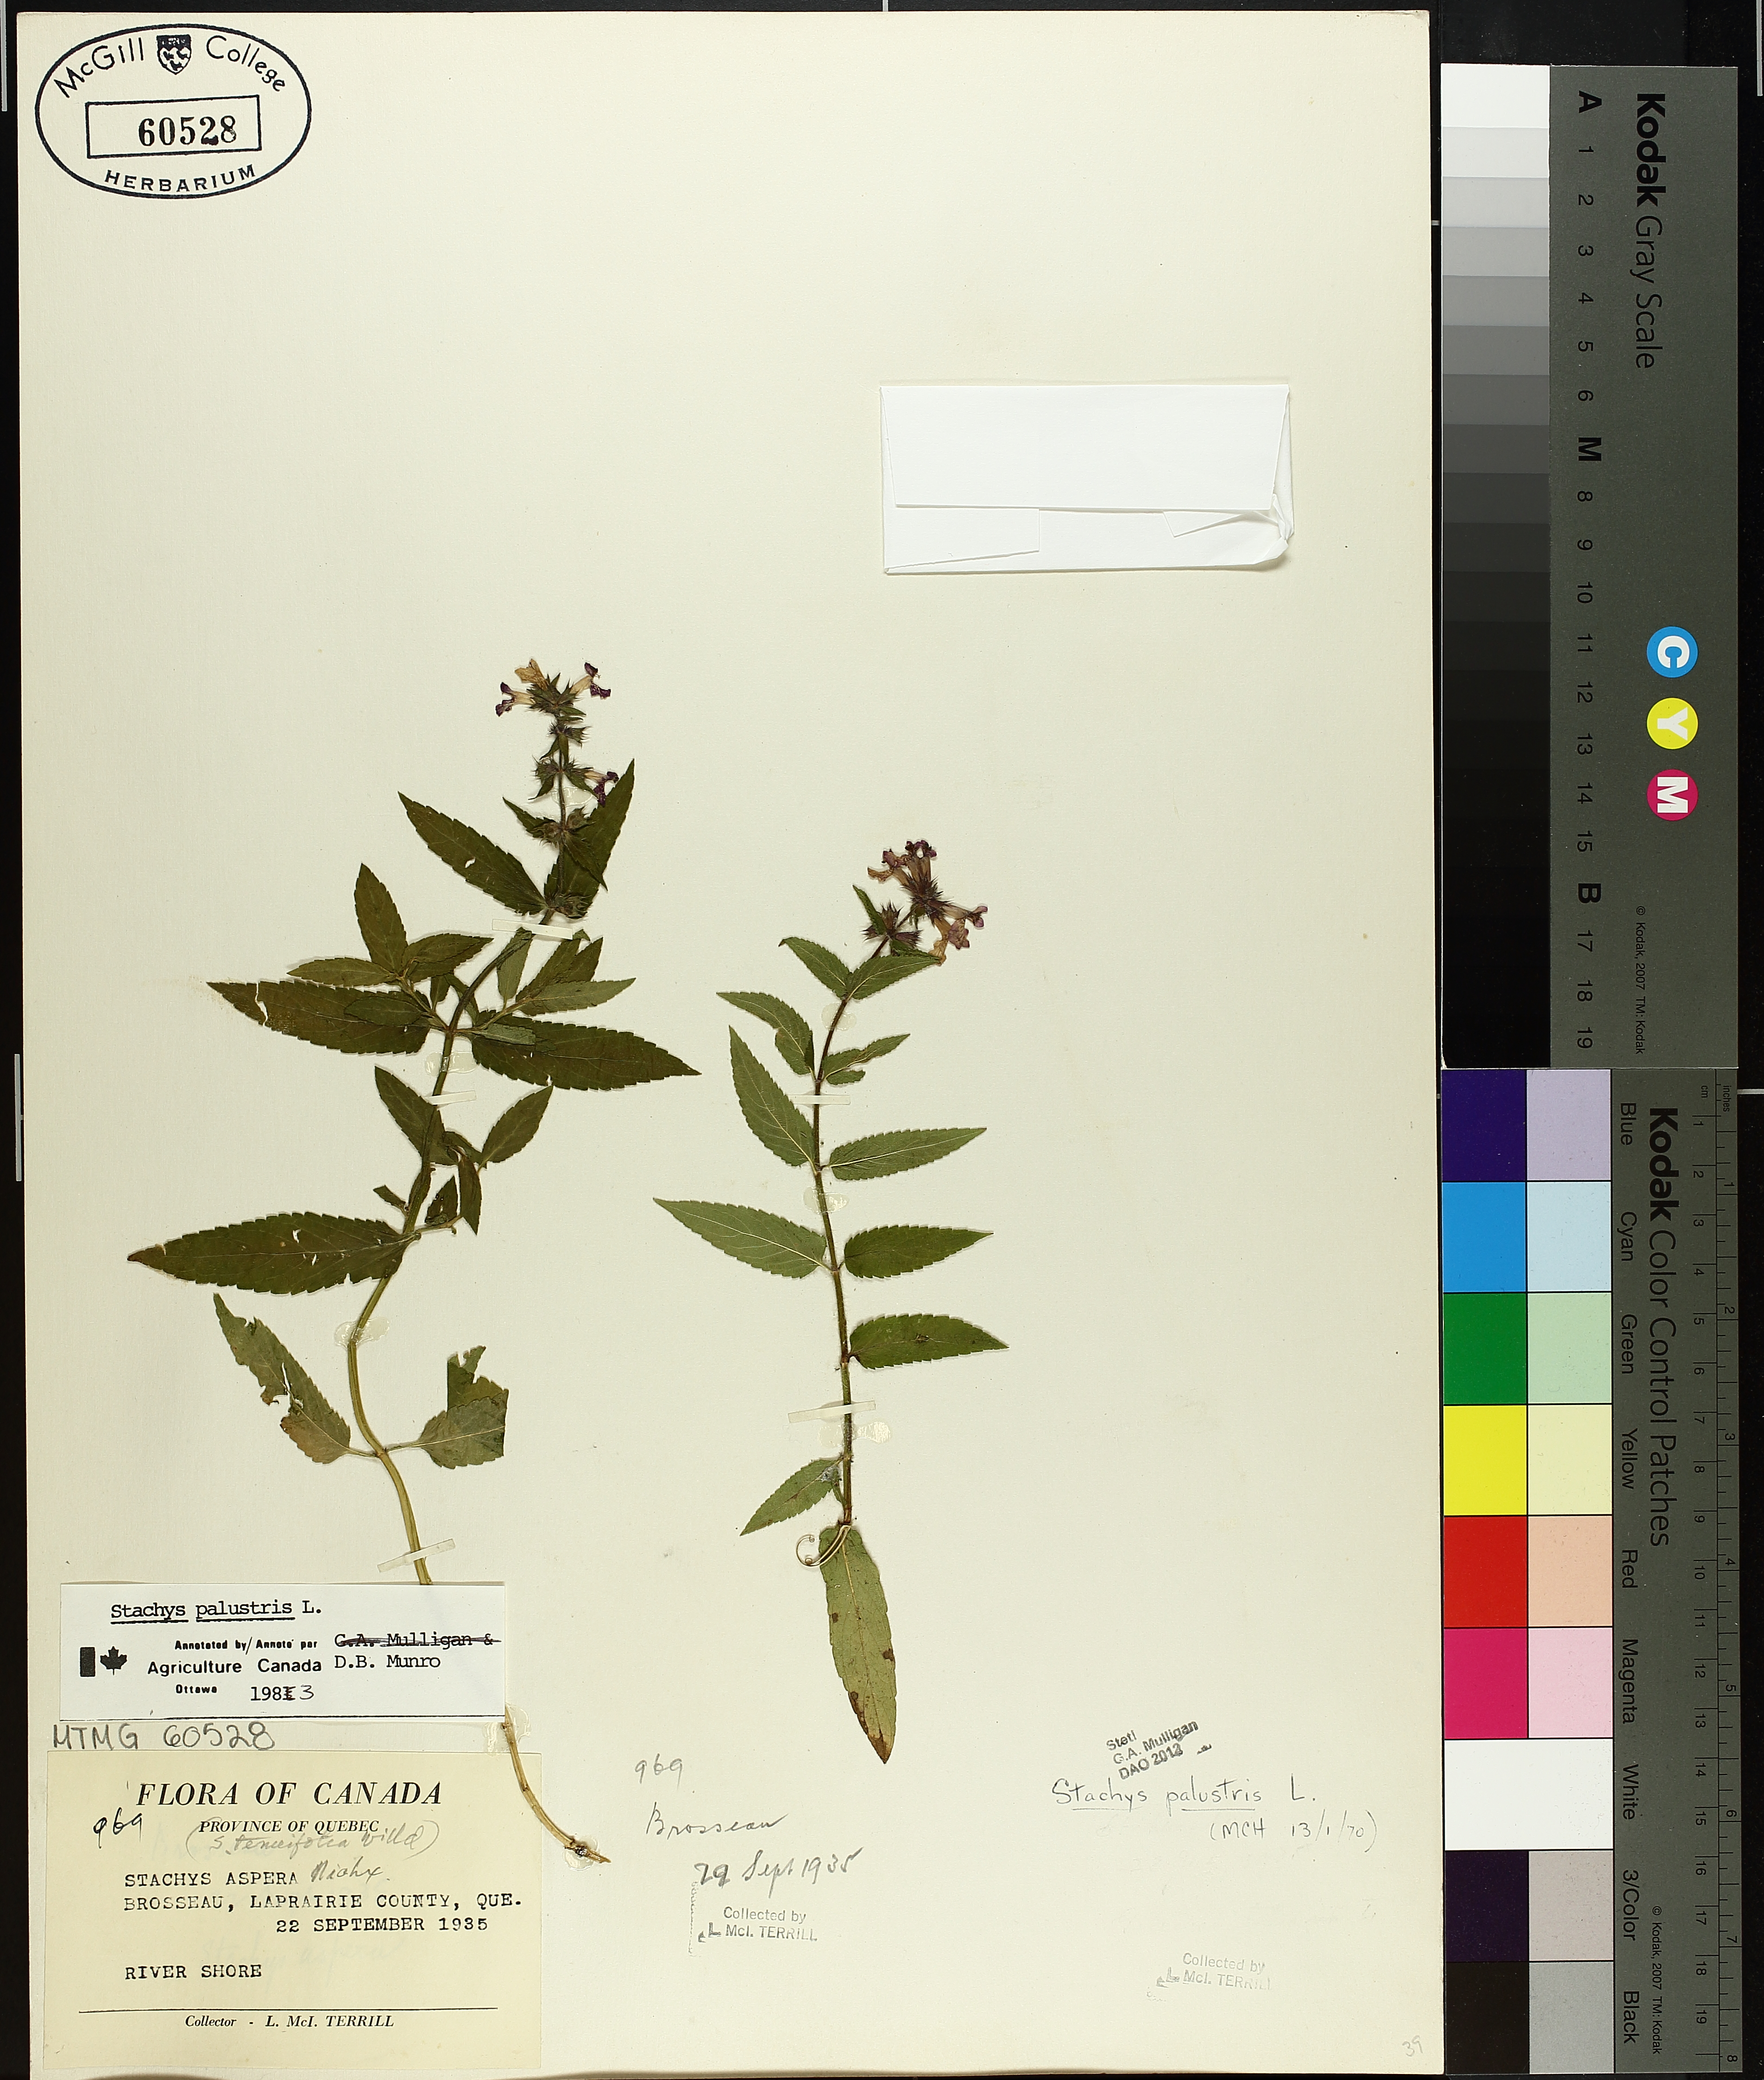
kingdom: Plantae
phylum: Tracheophyta
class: Magnoliopsida
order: Lamiales
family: Lamiaceae
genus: Stachys
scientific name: Stachys palustris
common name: Marsh woundwort
